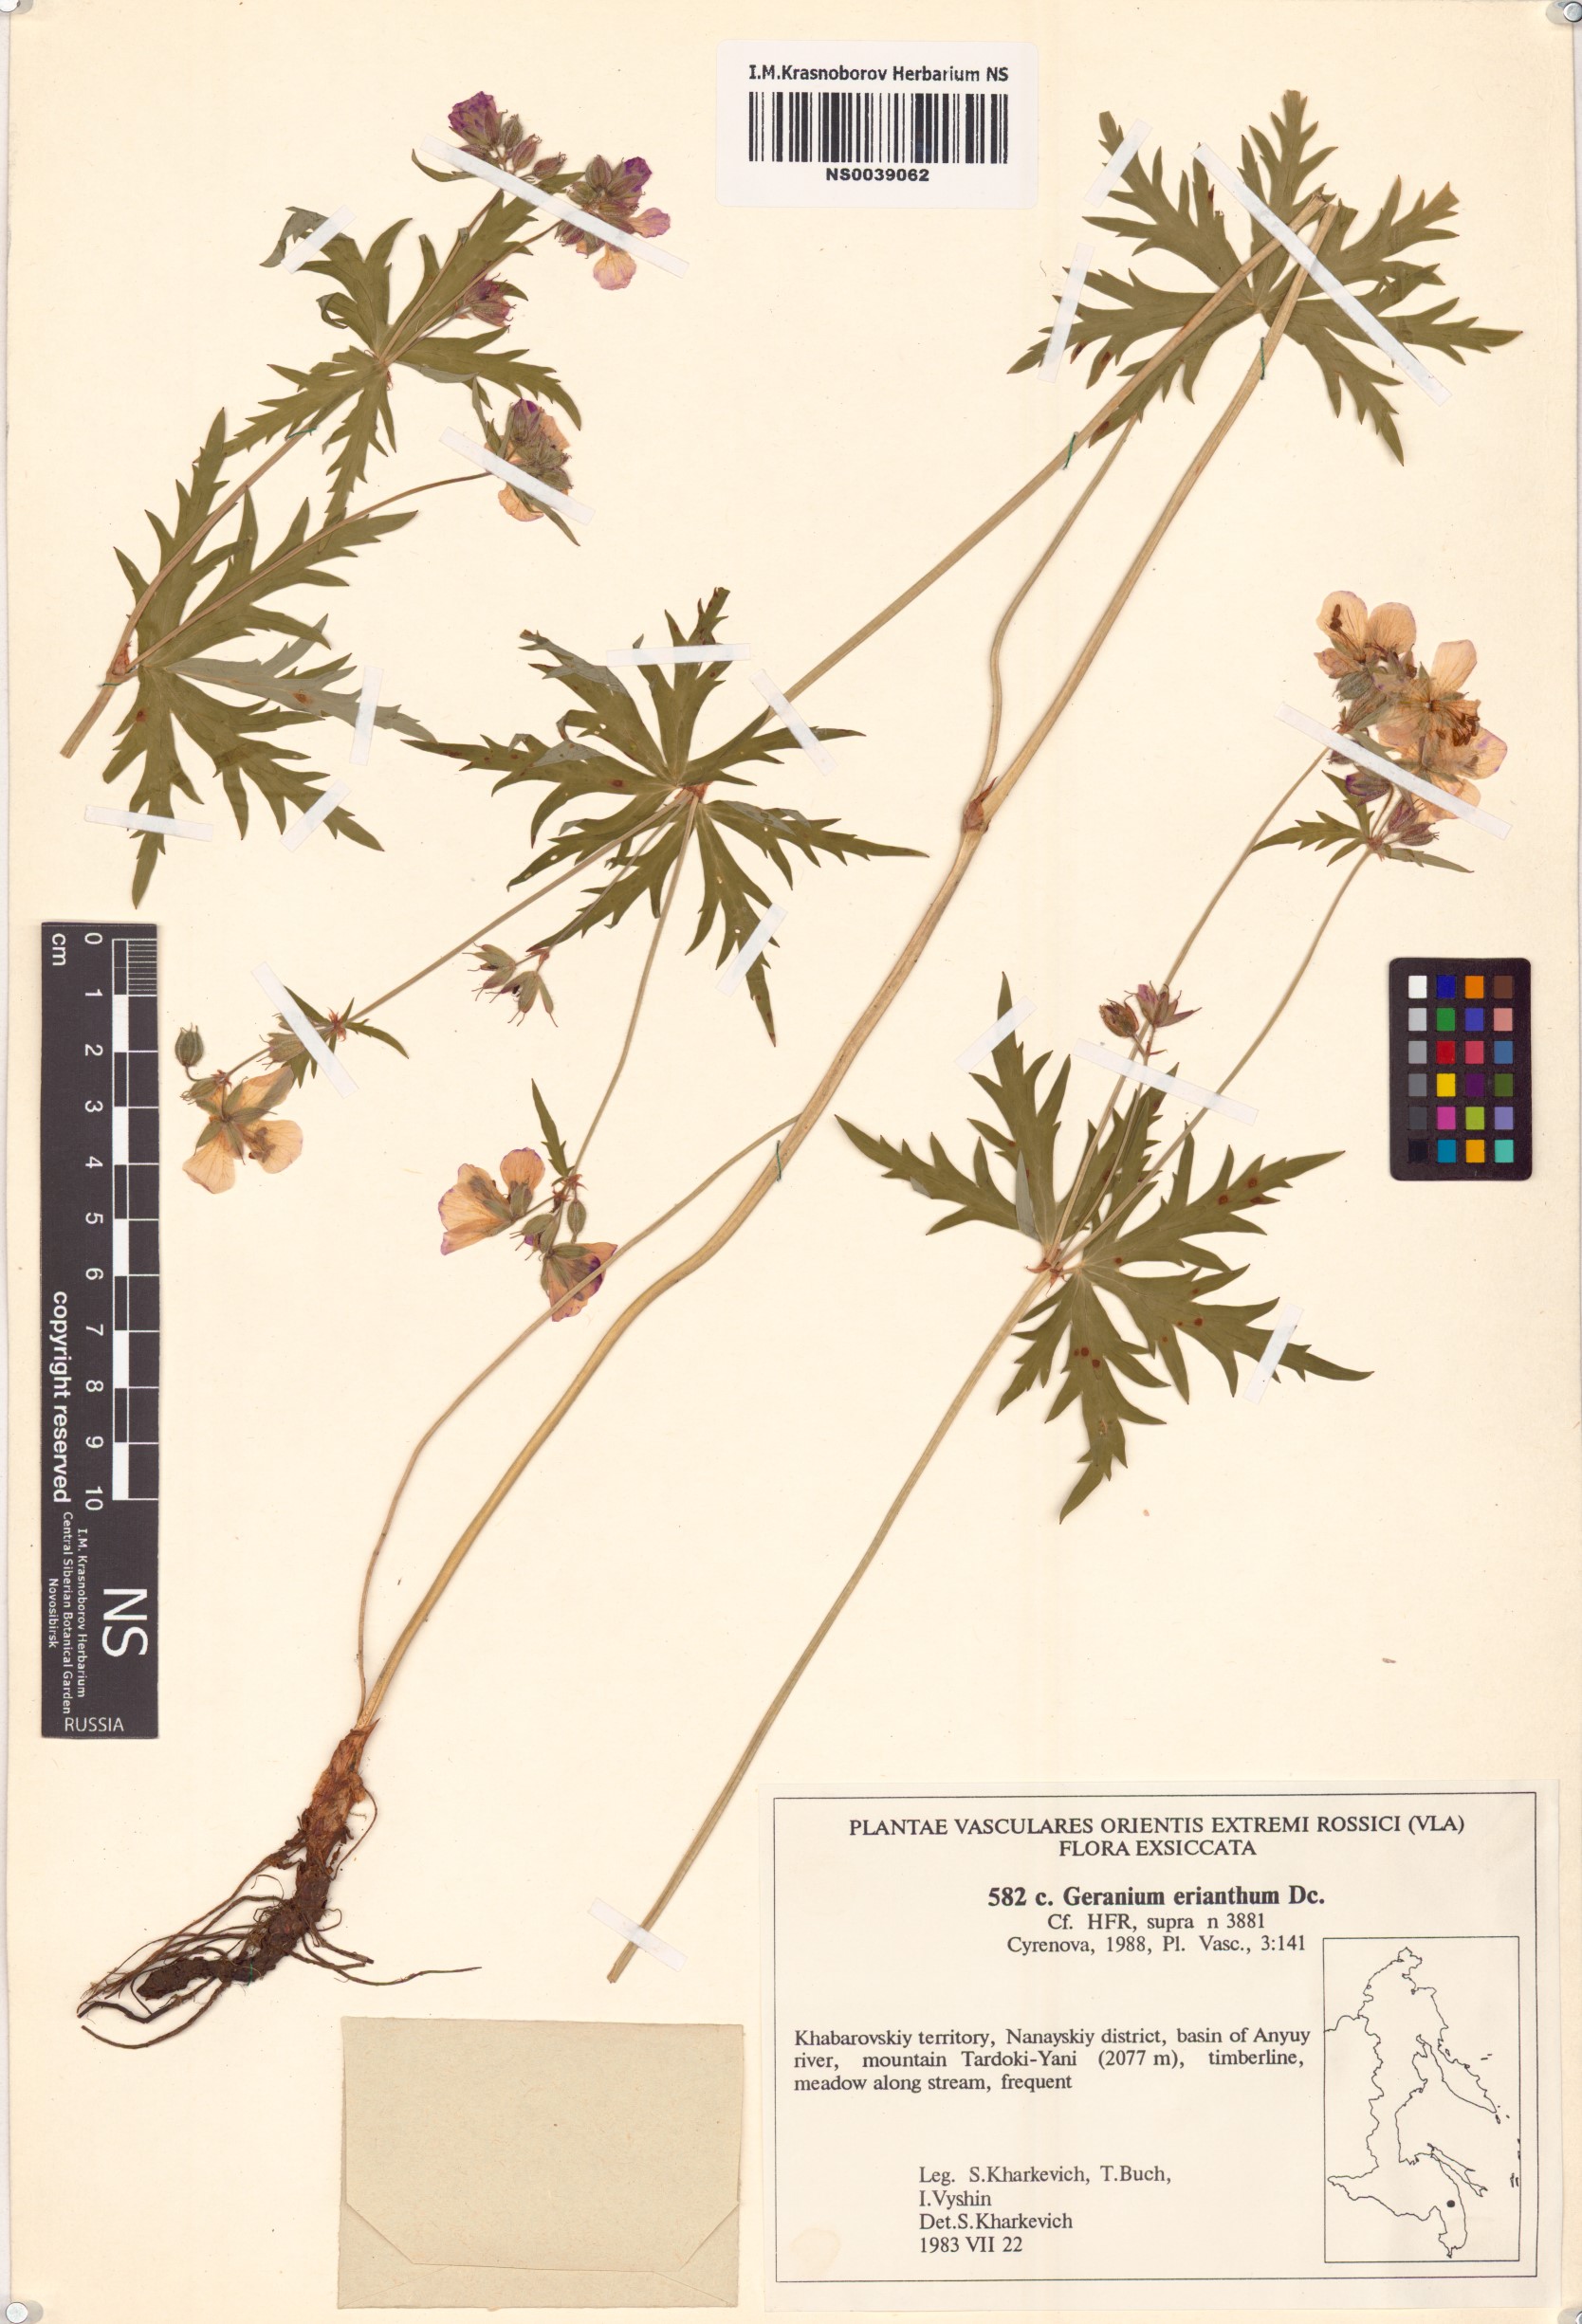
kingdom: Plantae
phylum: Tracheophyta
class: Magnoliopsida
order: Geraniales
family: Geraniaceae
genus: Geranium
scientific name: Geranium erianthum
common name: Northern crane's-bill
